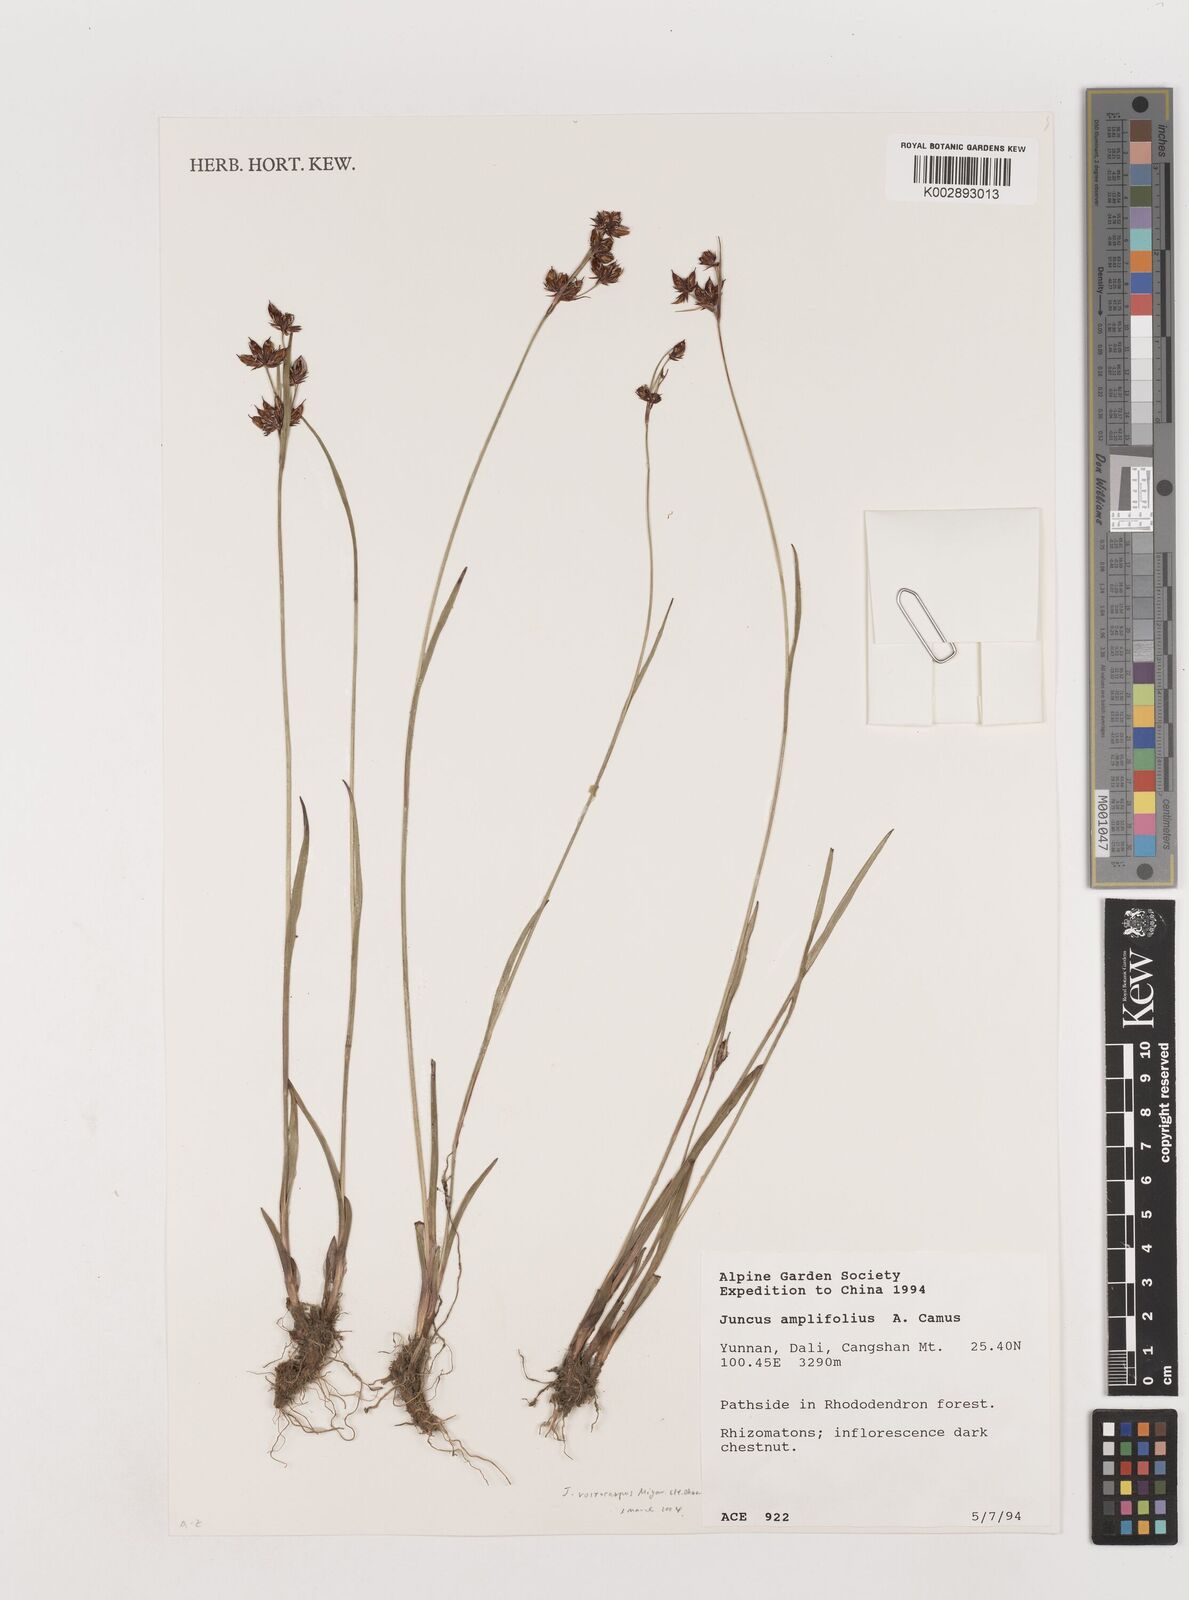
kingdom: Plantae
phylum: Tracheophyta
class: Liliopsida
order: Poales
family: Juncaceae
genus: Juncus
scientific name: Juncus amplifolius
